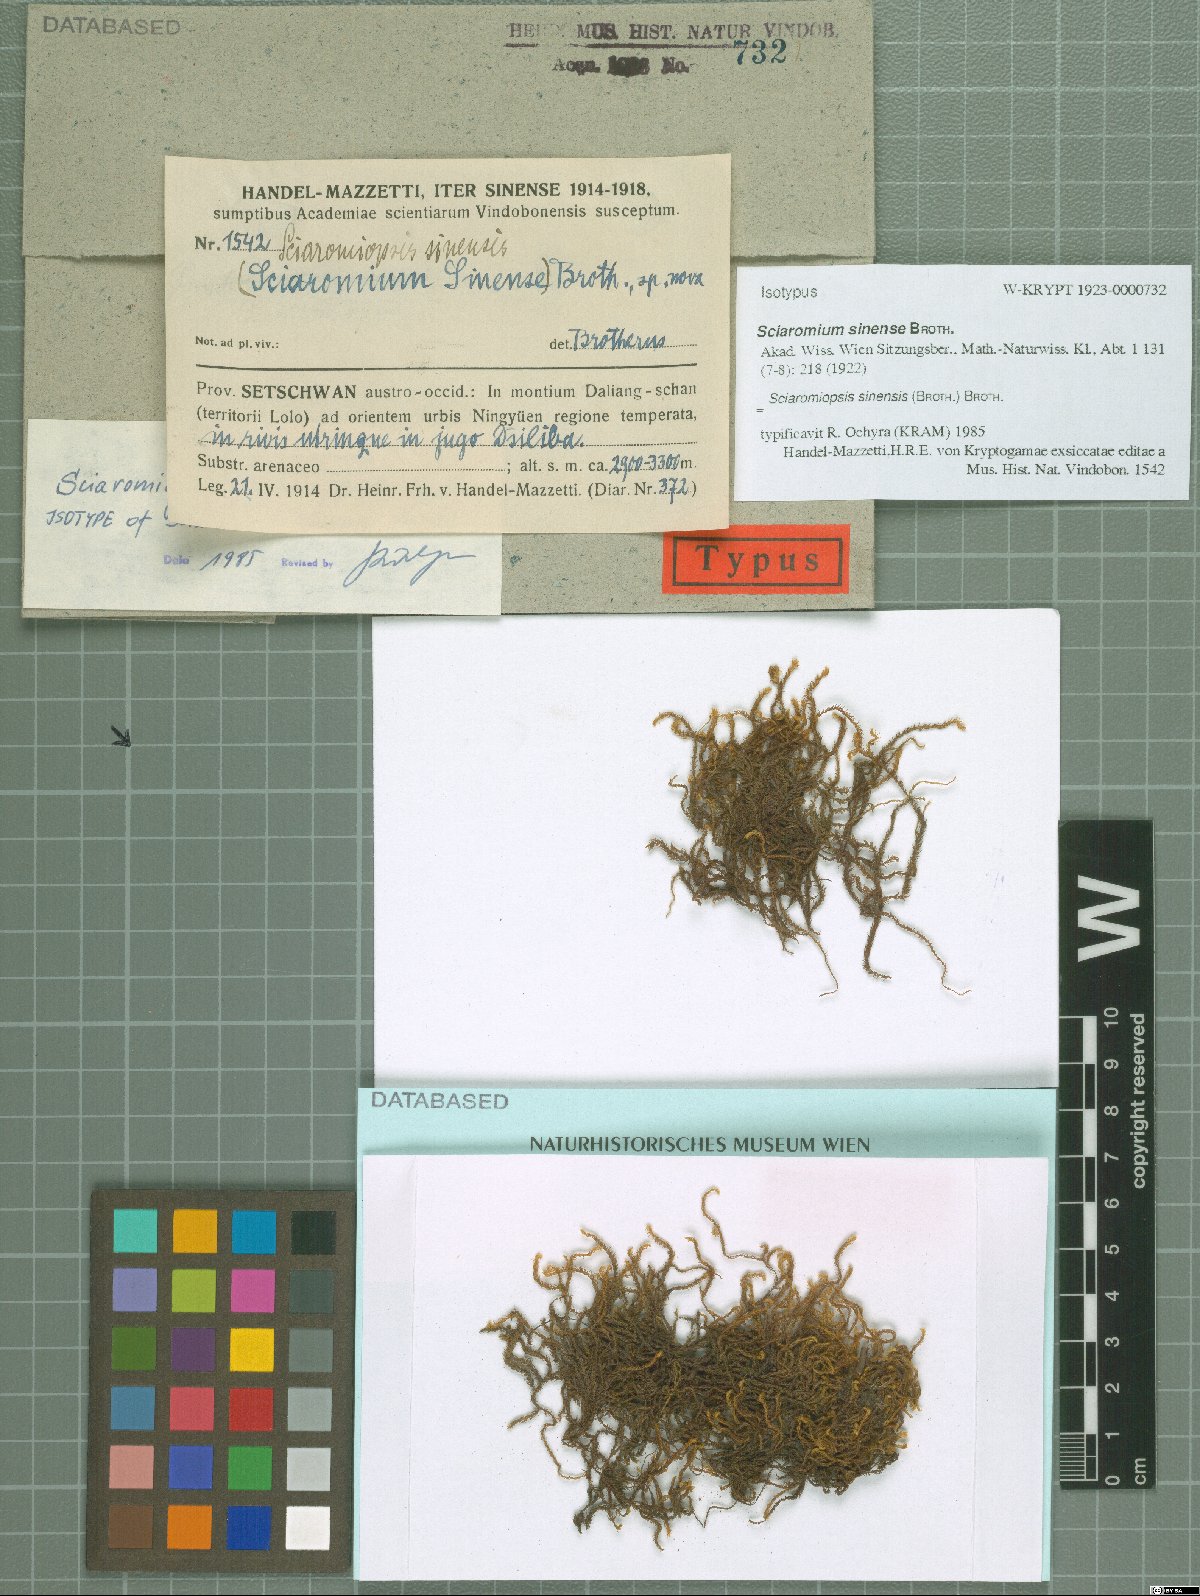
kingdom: Plantae
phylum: Bryophyta
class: Bryopsida
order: Hypnales
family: Brachytheciaceae
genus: Brachythecium
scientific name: Brachythecium sinense
